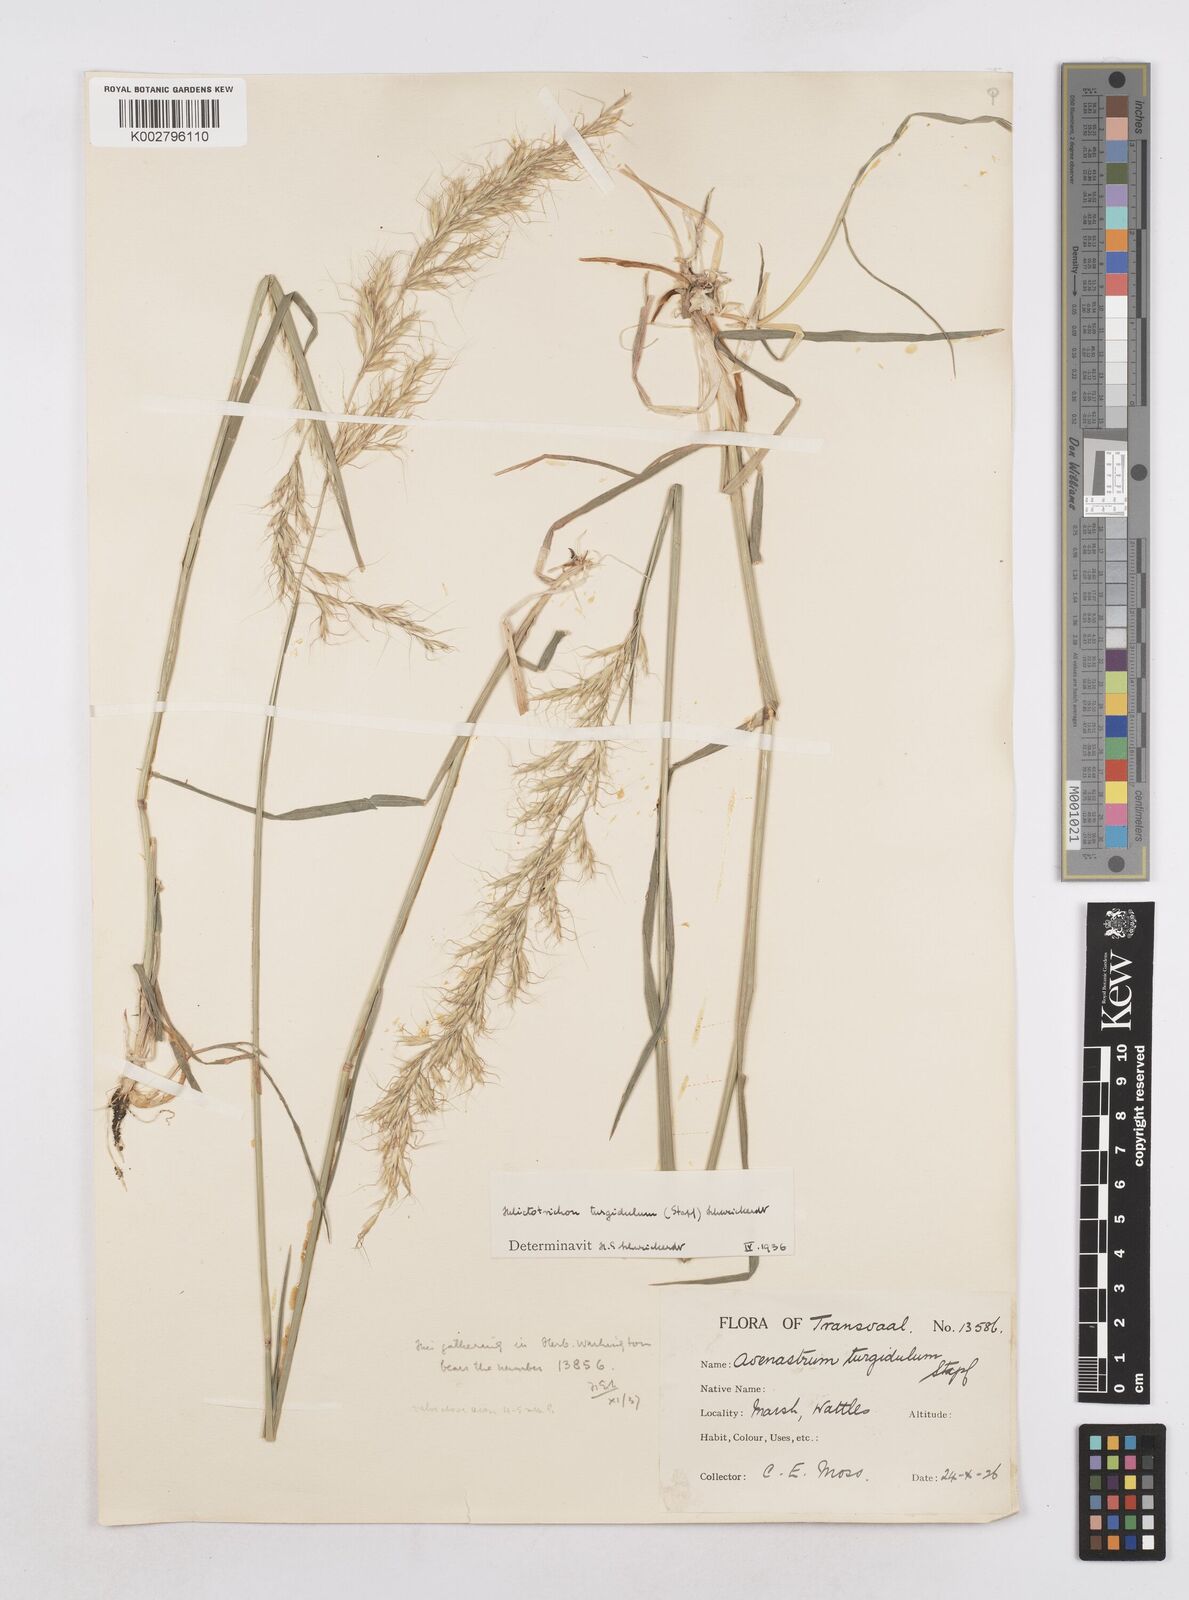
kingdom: Plantae
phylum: Tracheophyta
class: Liliopsida
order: Poales
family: Poaceae
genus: Trisetopsis
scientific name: Trisetopsis imberbis
